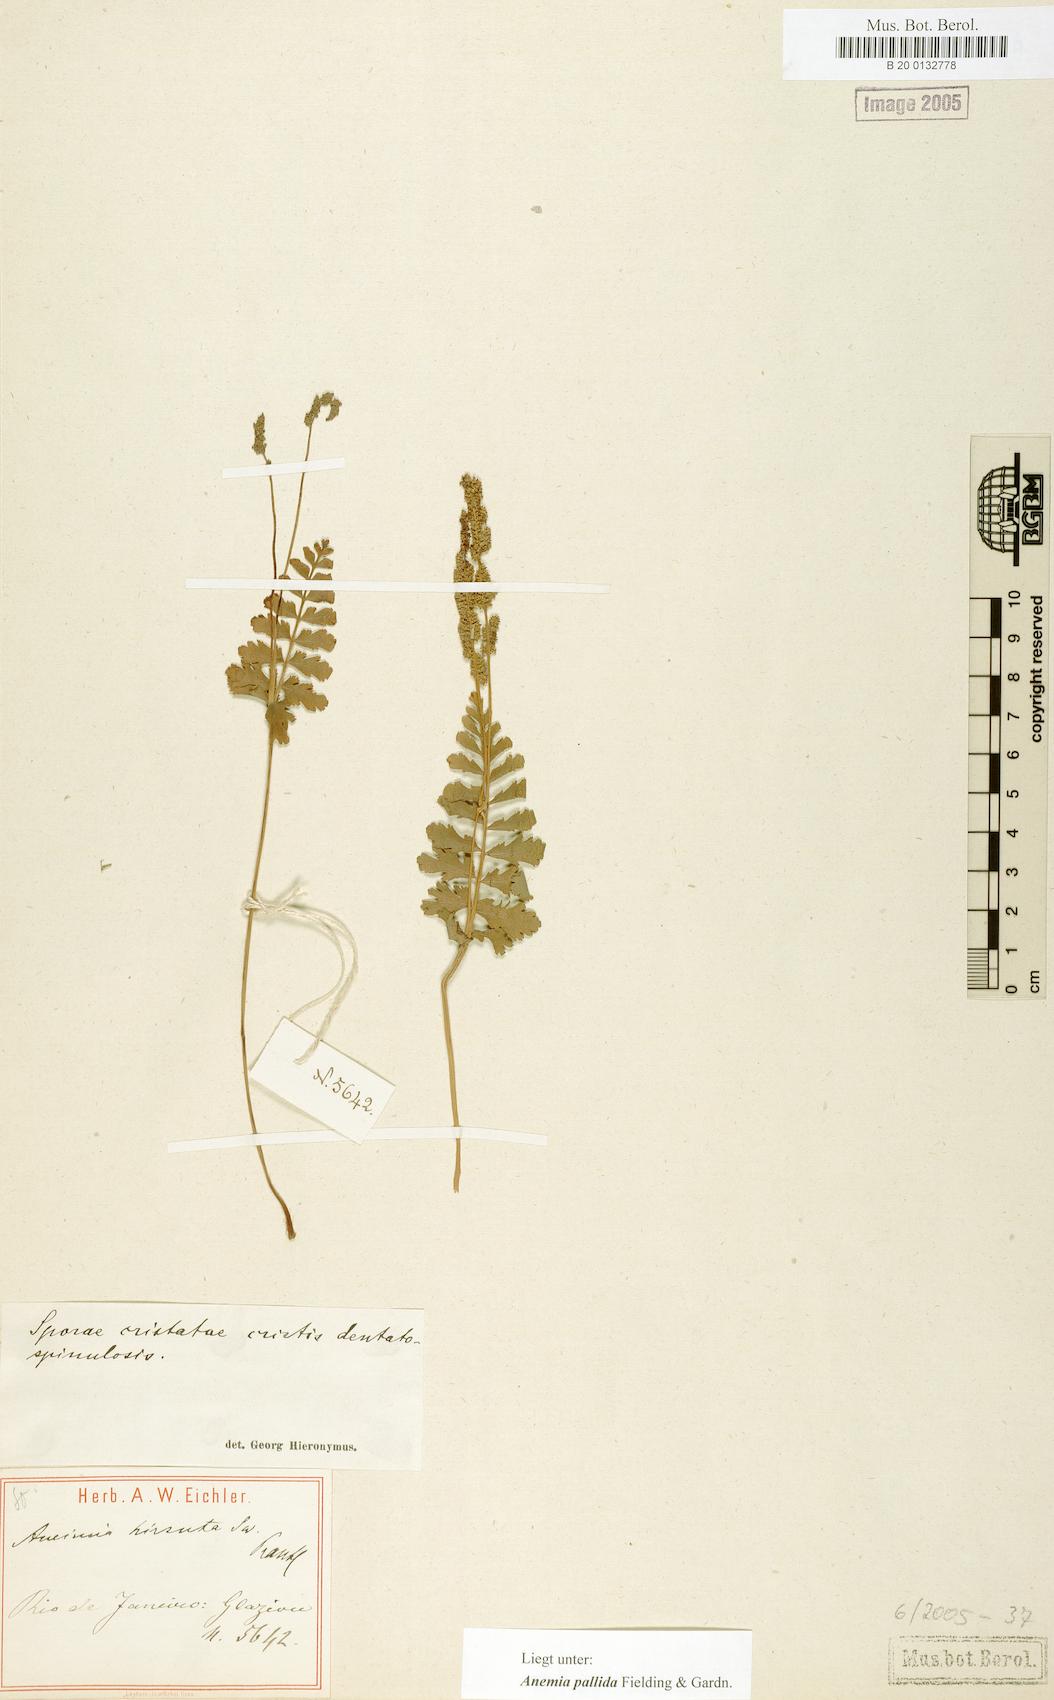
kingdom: Plantae
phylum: Tracheophyta
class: Polypodiopsida
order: Schizaeales
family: Anemiaceae
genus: Anemia
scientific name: Anemia hirsuta
